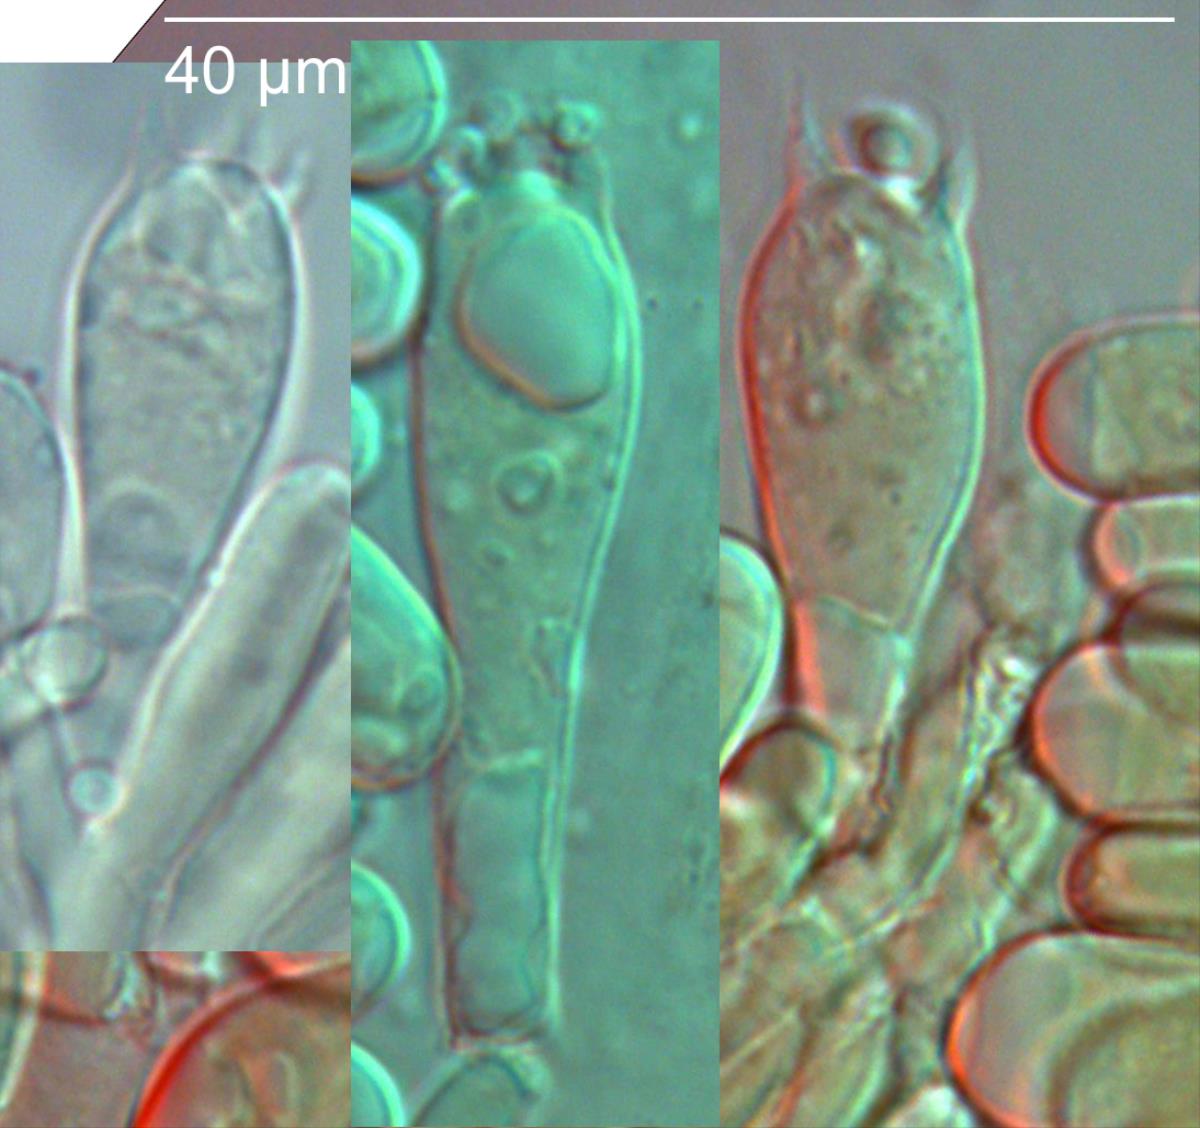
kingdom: Fungi
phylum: Basidiomycota
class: Agaricomycetes
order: Agaricales
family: Tricholomataceae
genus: Tricholoma
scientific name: Tricholoma
